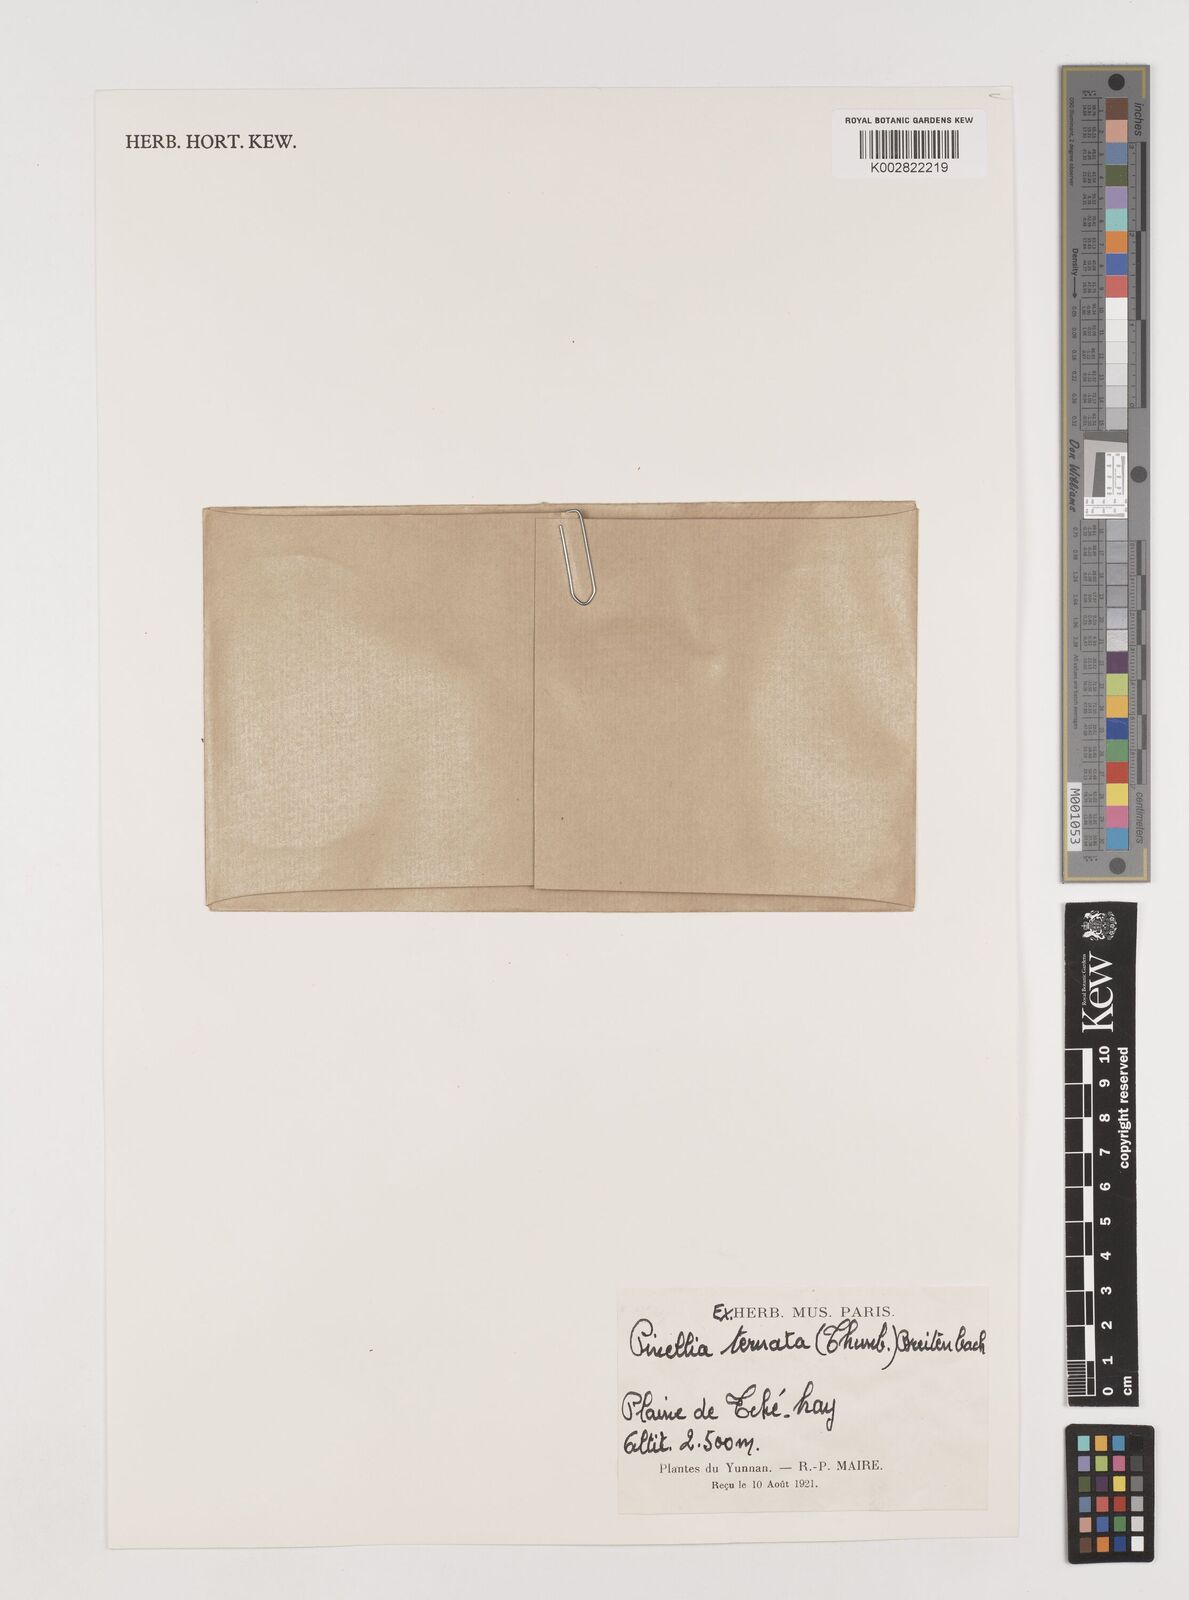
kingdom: Plantae
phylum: Tracheophyta
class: Liliopsida
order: Alismatales
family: Araceae
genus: Pinellia
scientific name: Pinellia ternata
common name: Pinellia
